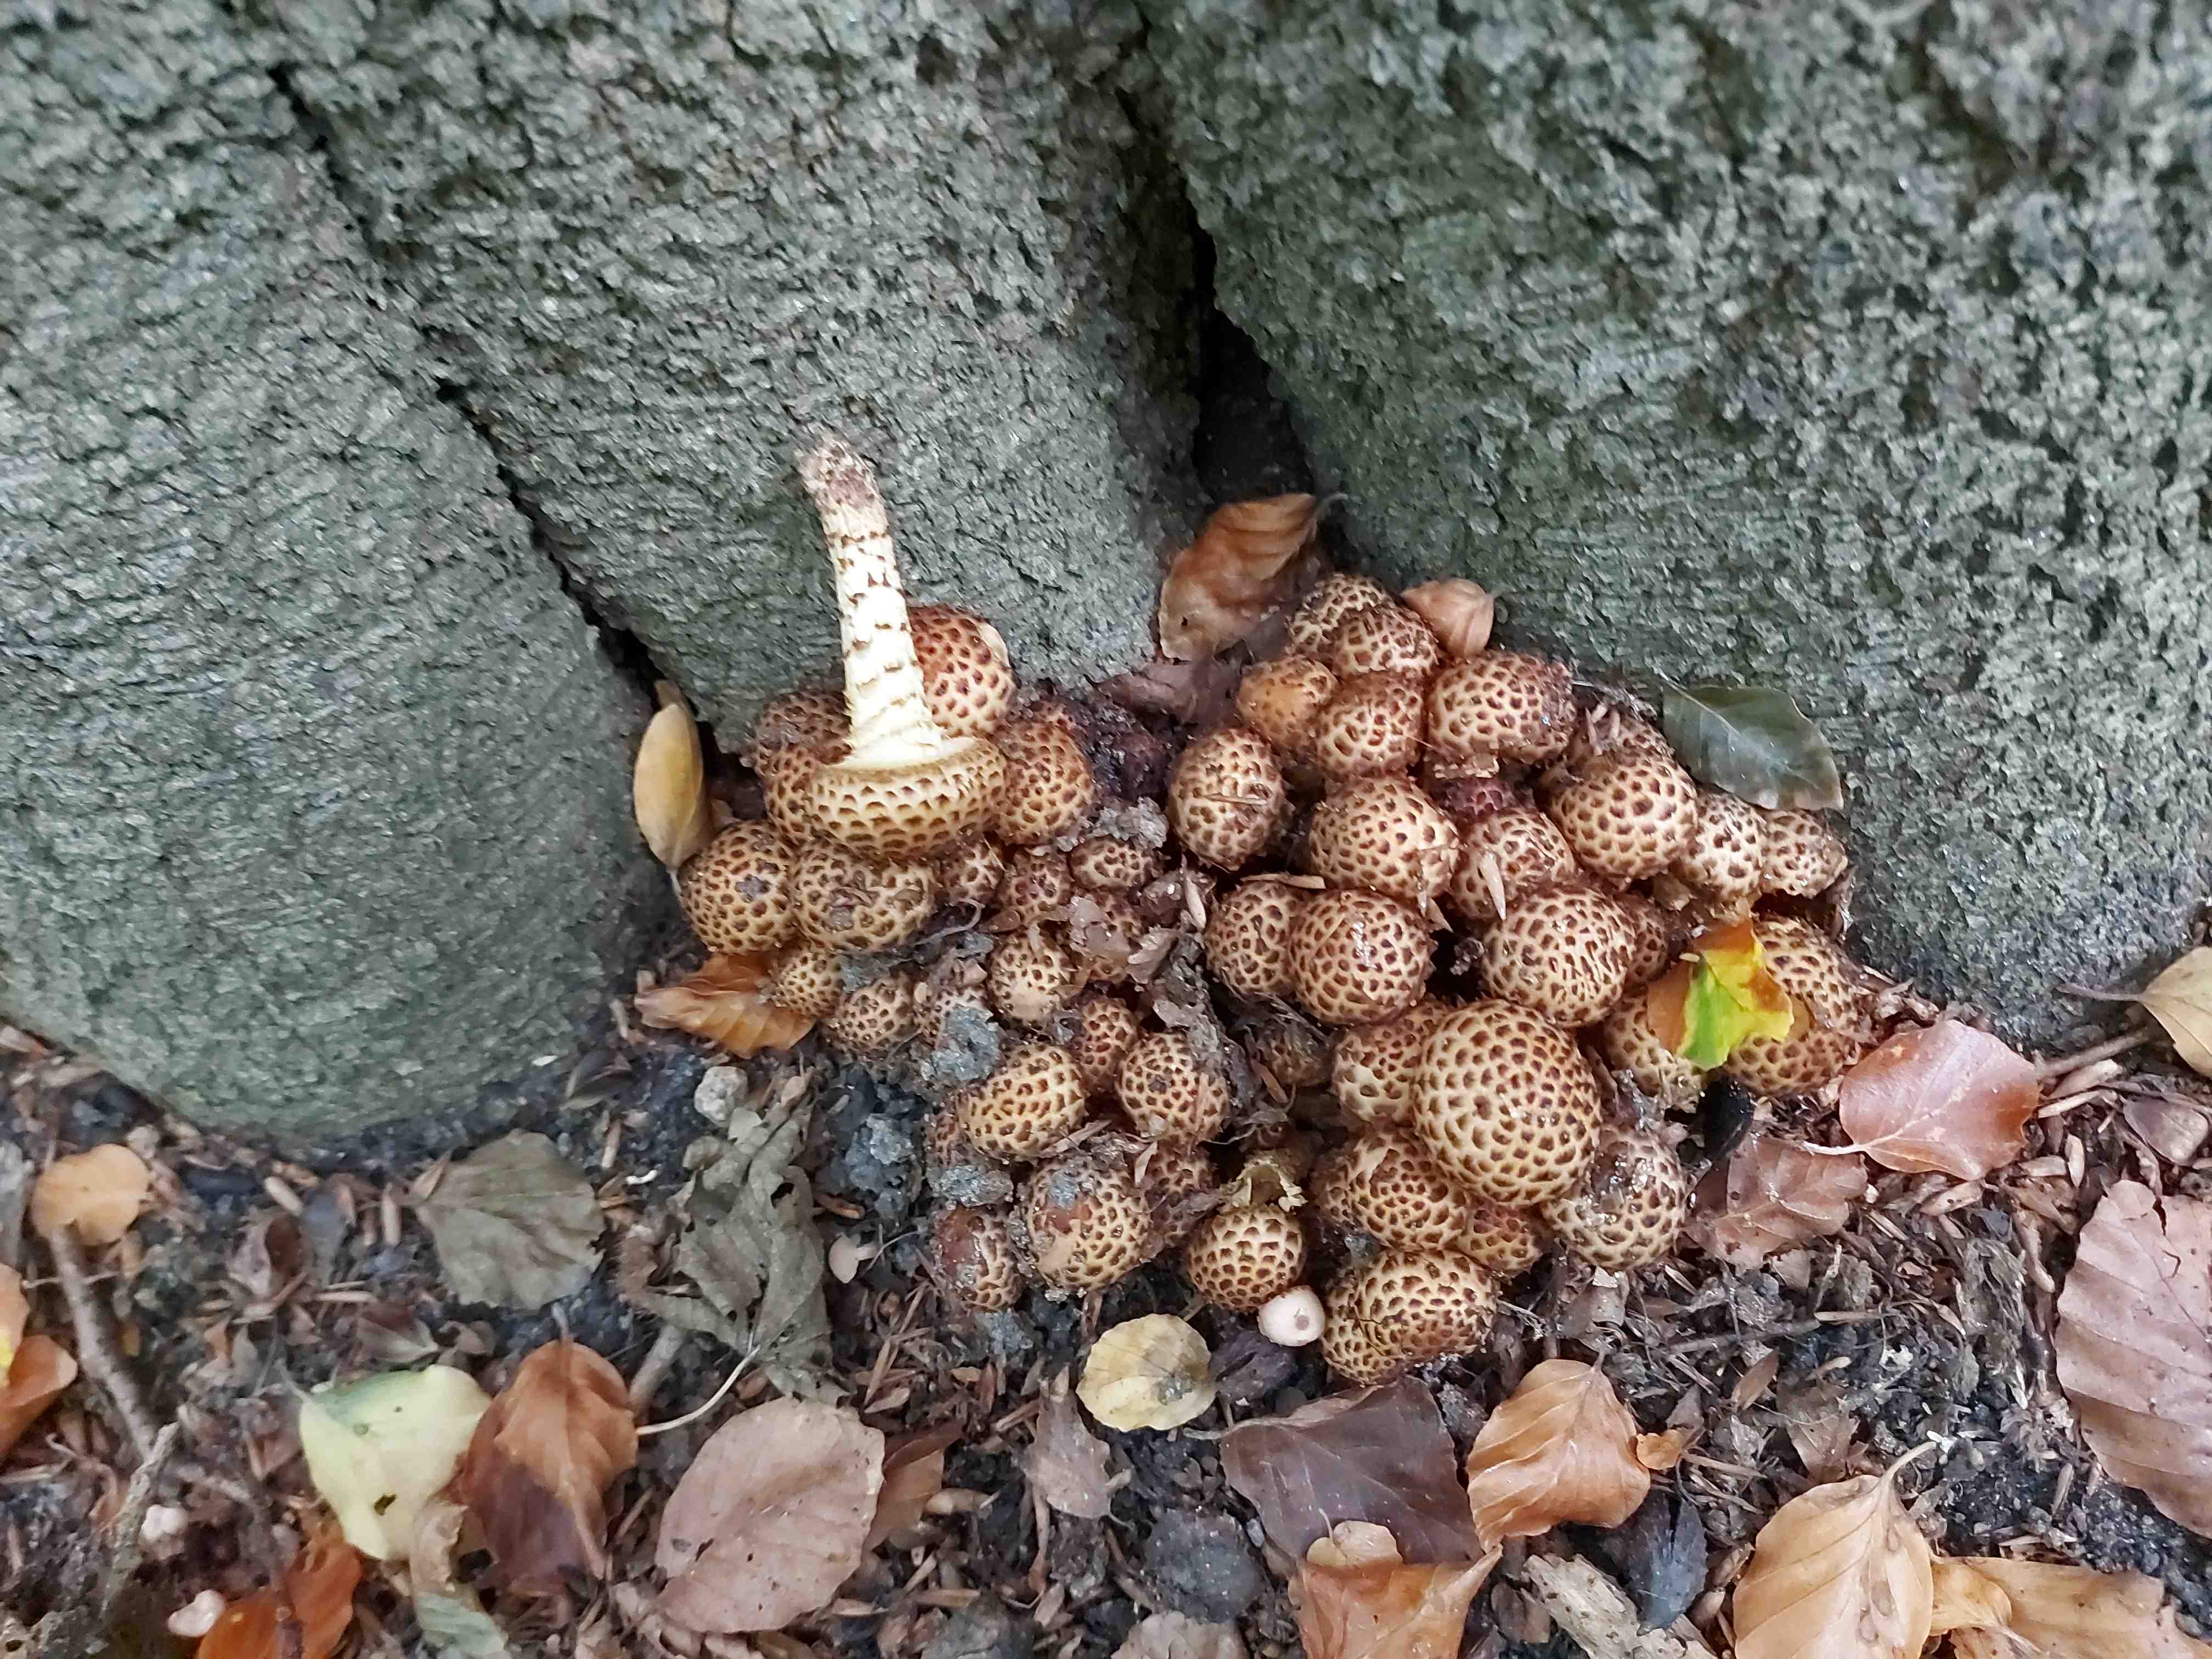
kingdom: Fungi
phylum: Basidiomycota
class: Agaricomycetes
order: Agaricales
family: Strophariaceae
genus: Pholiota
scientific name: Pholiota squarrosa
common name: krumskællet skælhat
